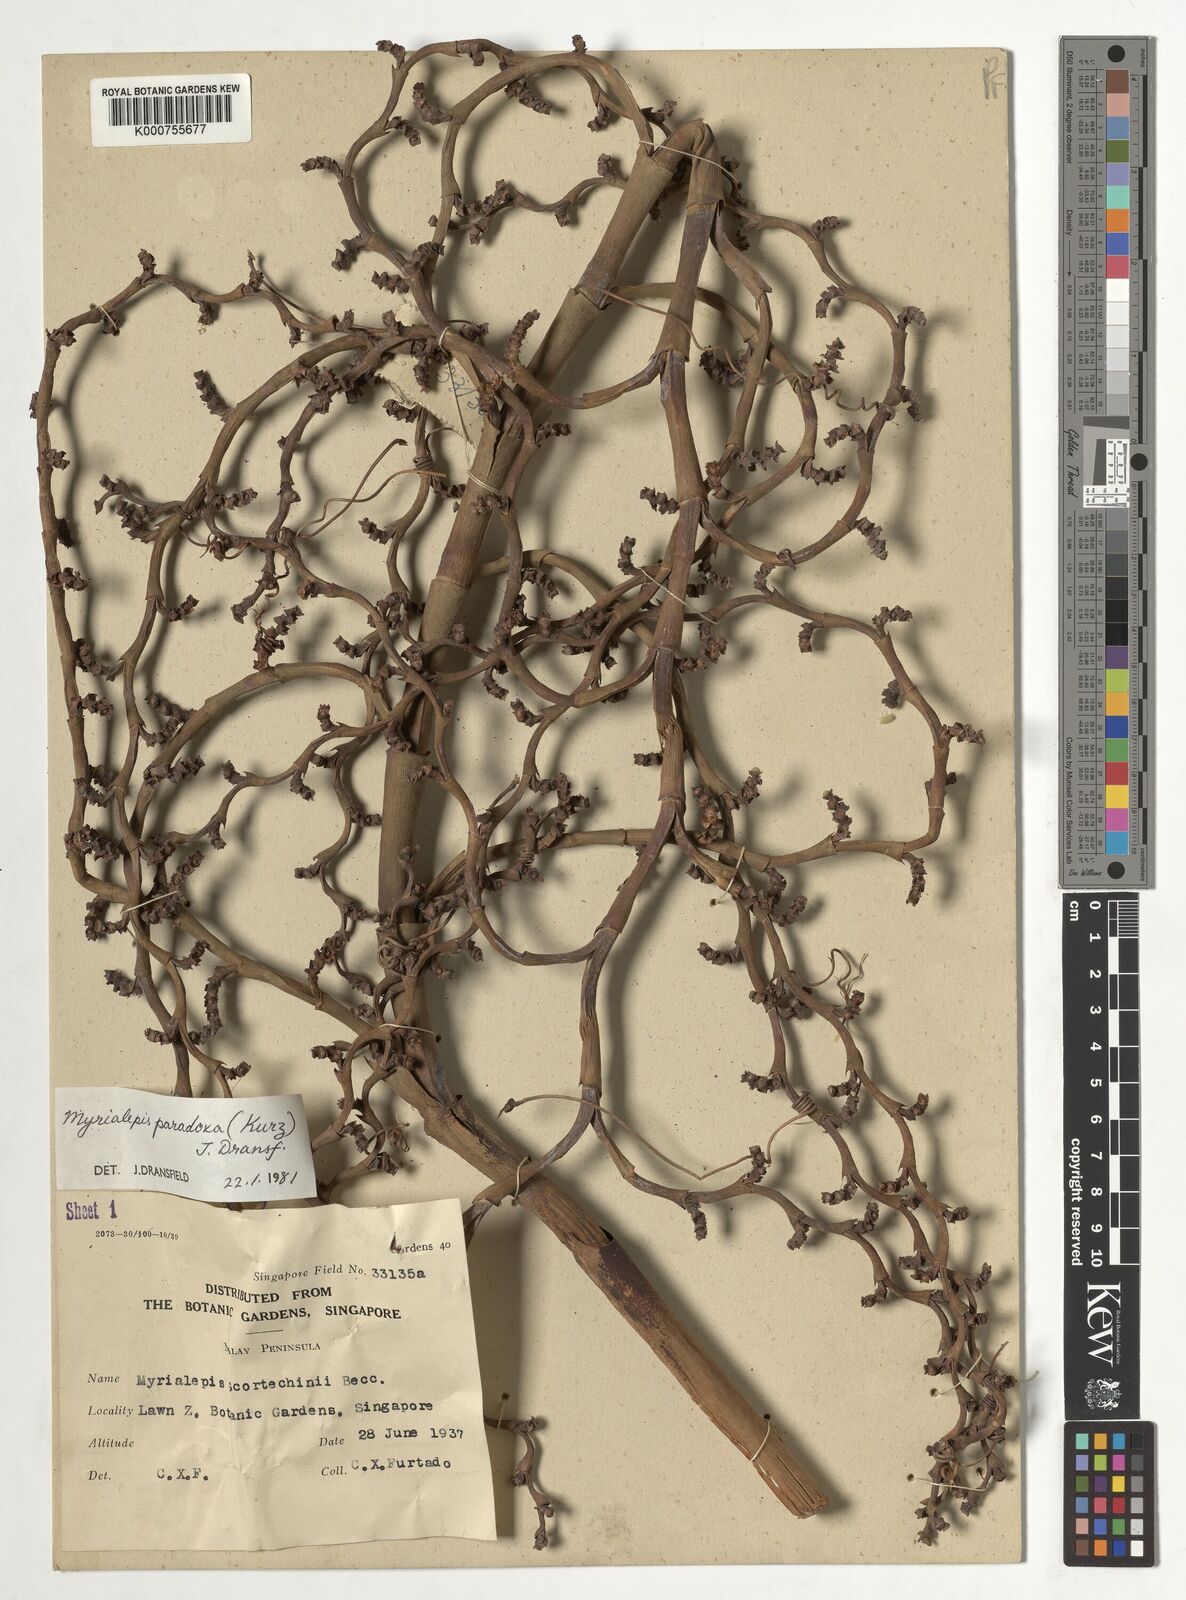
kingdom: Plantae
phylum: Tracheophyta
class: Liliopsida
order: Arecales
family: Arecaceae
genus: Myrialepis
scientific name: Myrialepis paradoxa
